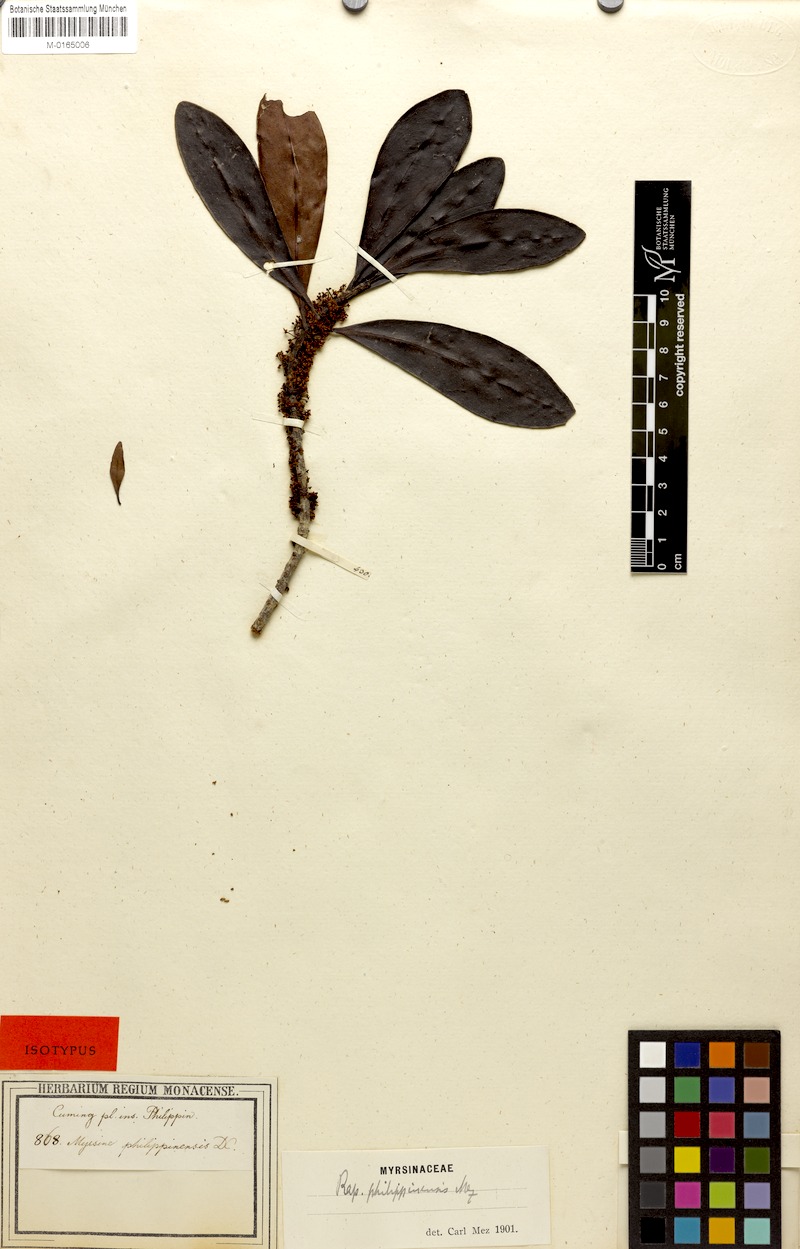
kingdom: Plantae
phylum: Tracheophyta
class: Magnoliopsida
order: Ericales
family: Primulaceae
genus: Myrsine
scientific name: Myrsine philippinensis
